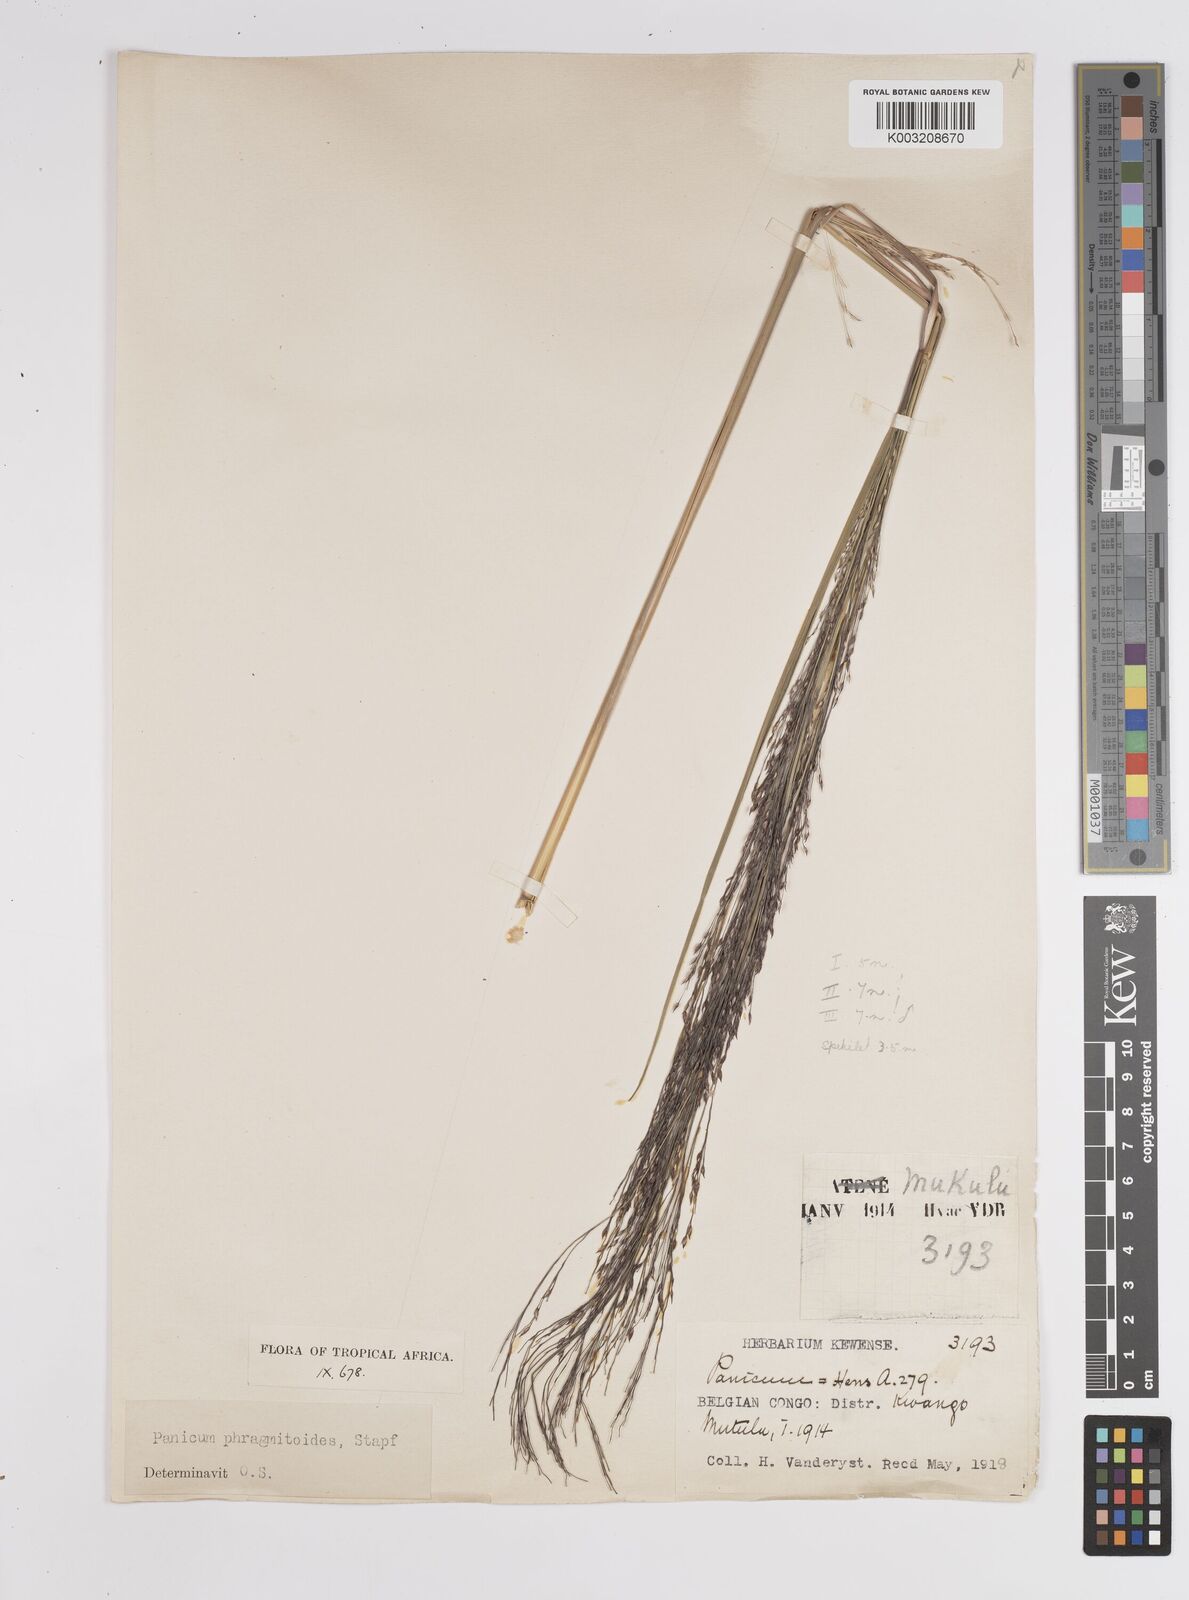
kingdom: Plantae
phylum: Tracheophyta
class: Liliopsida
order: Poales
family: Poaceae
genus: Panicum
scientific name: Panicum phragmitoides
